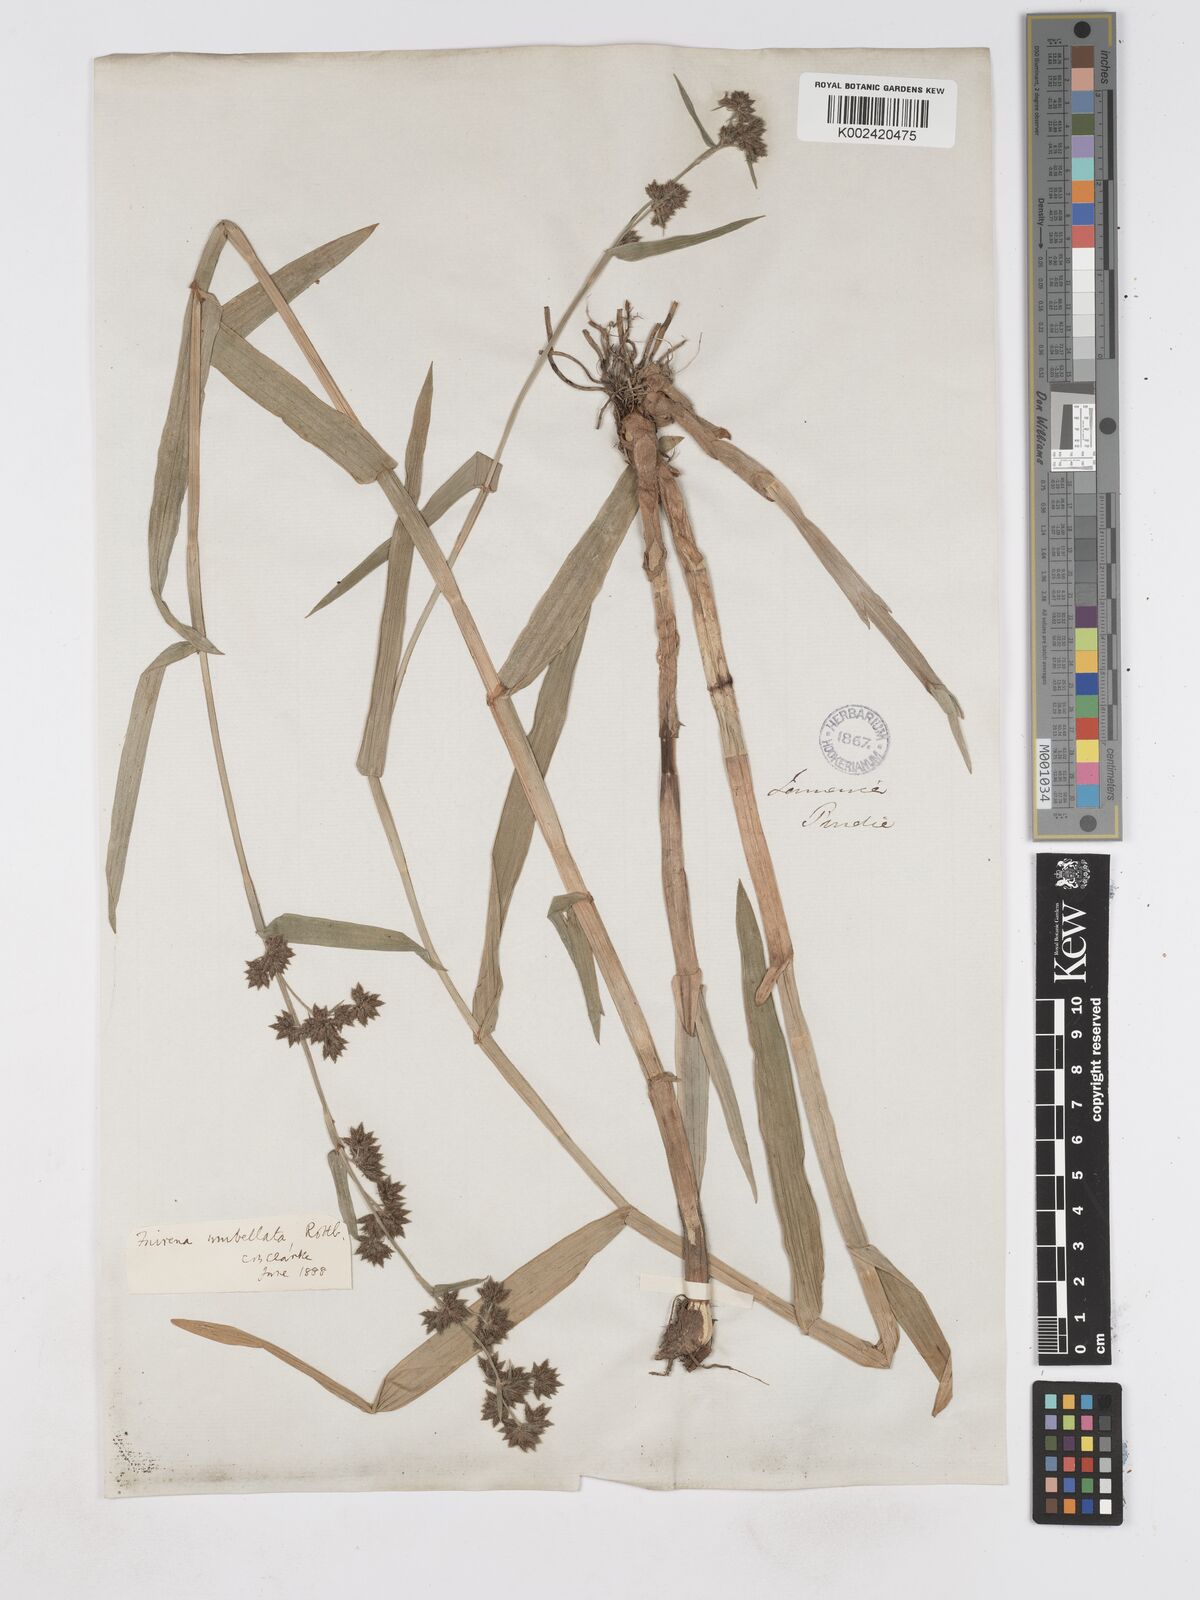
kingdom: Plantae
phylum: Tracheophyta
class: Liliopsida
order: Poales
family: Cyperaceae
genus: Fuirena
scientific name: Fuirena umbellata
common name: Yefen
